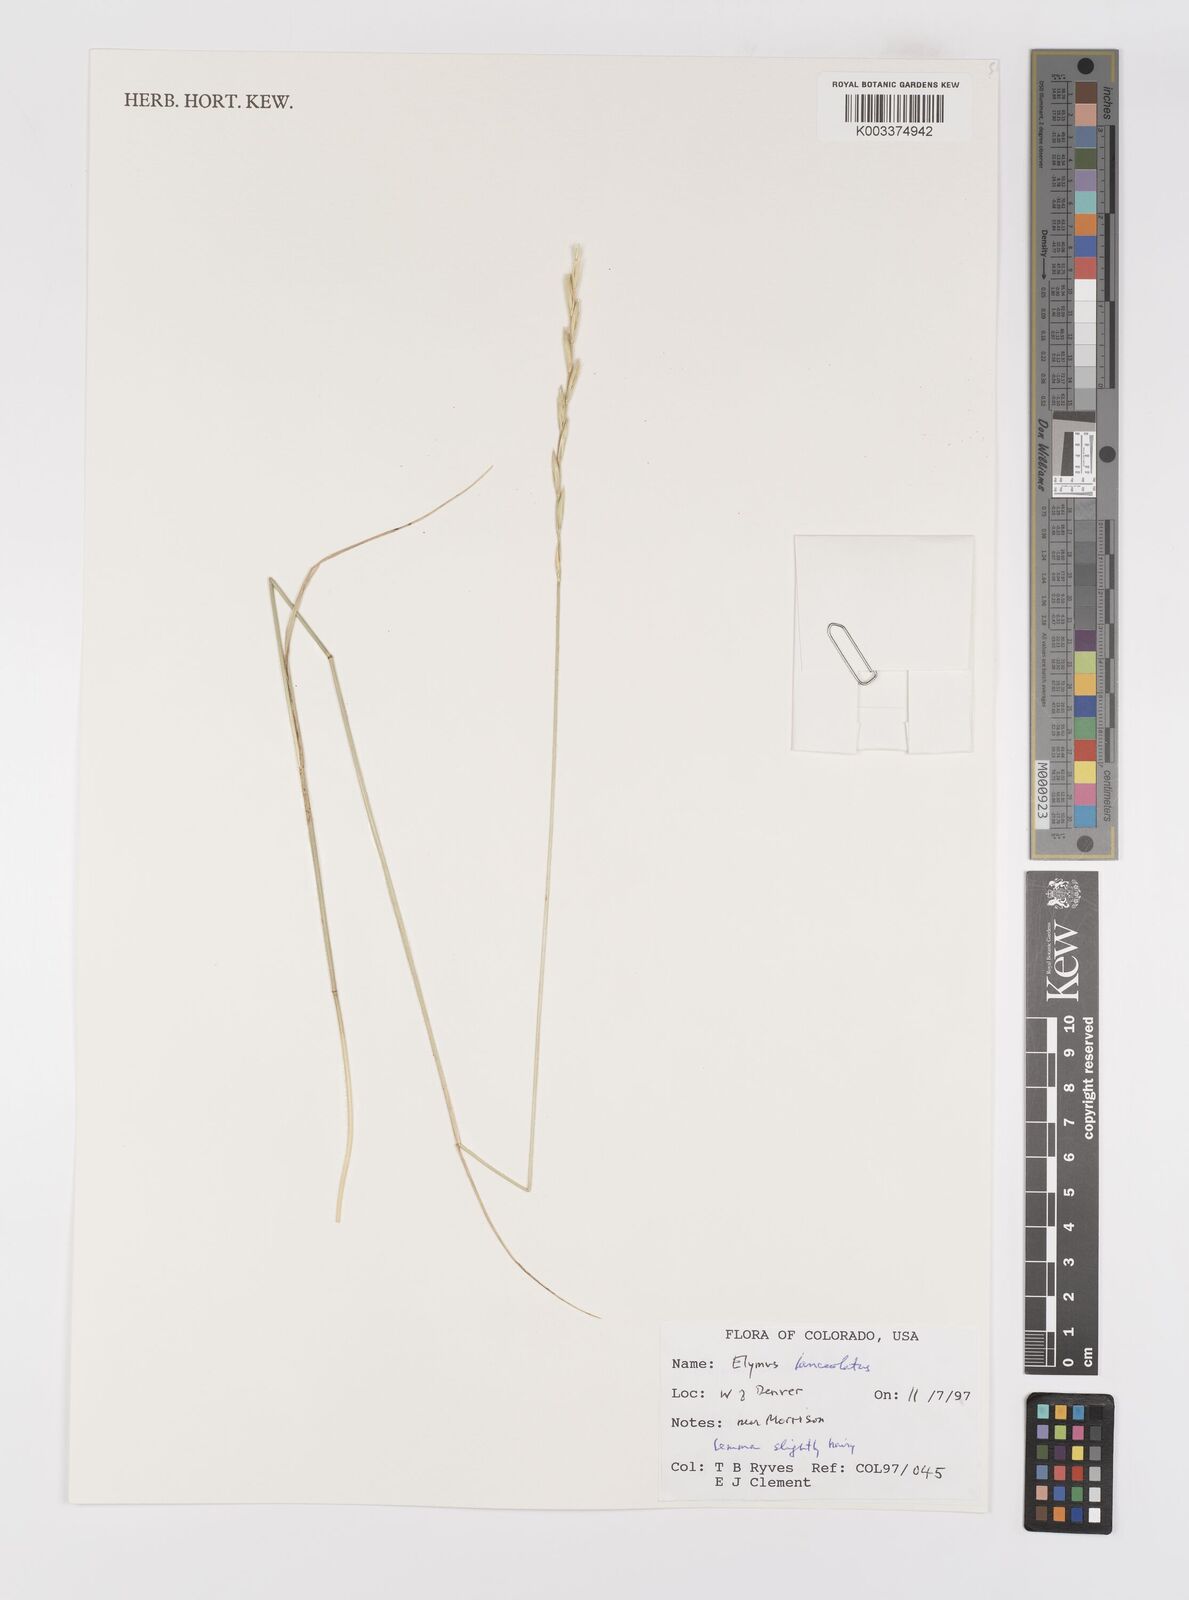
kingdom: Plantae
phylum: Tracheophyta
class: Liliopsida
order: Poales
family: Poaceae
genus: Elymus
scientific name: Elymus lanceolatus
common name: Thick-spike wheatgrass
